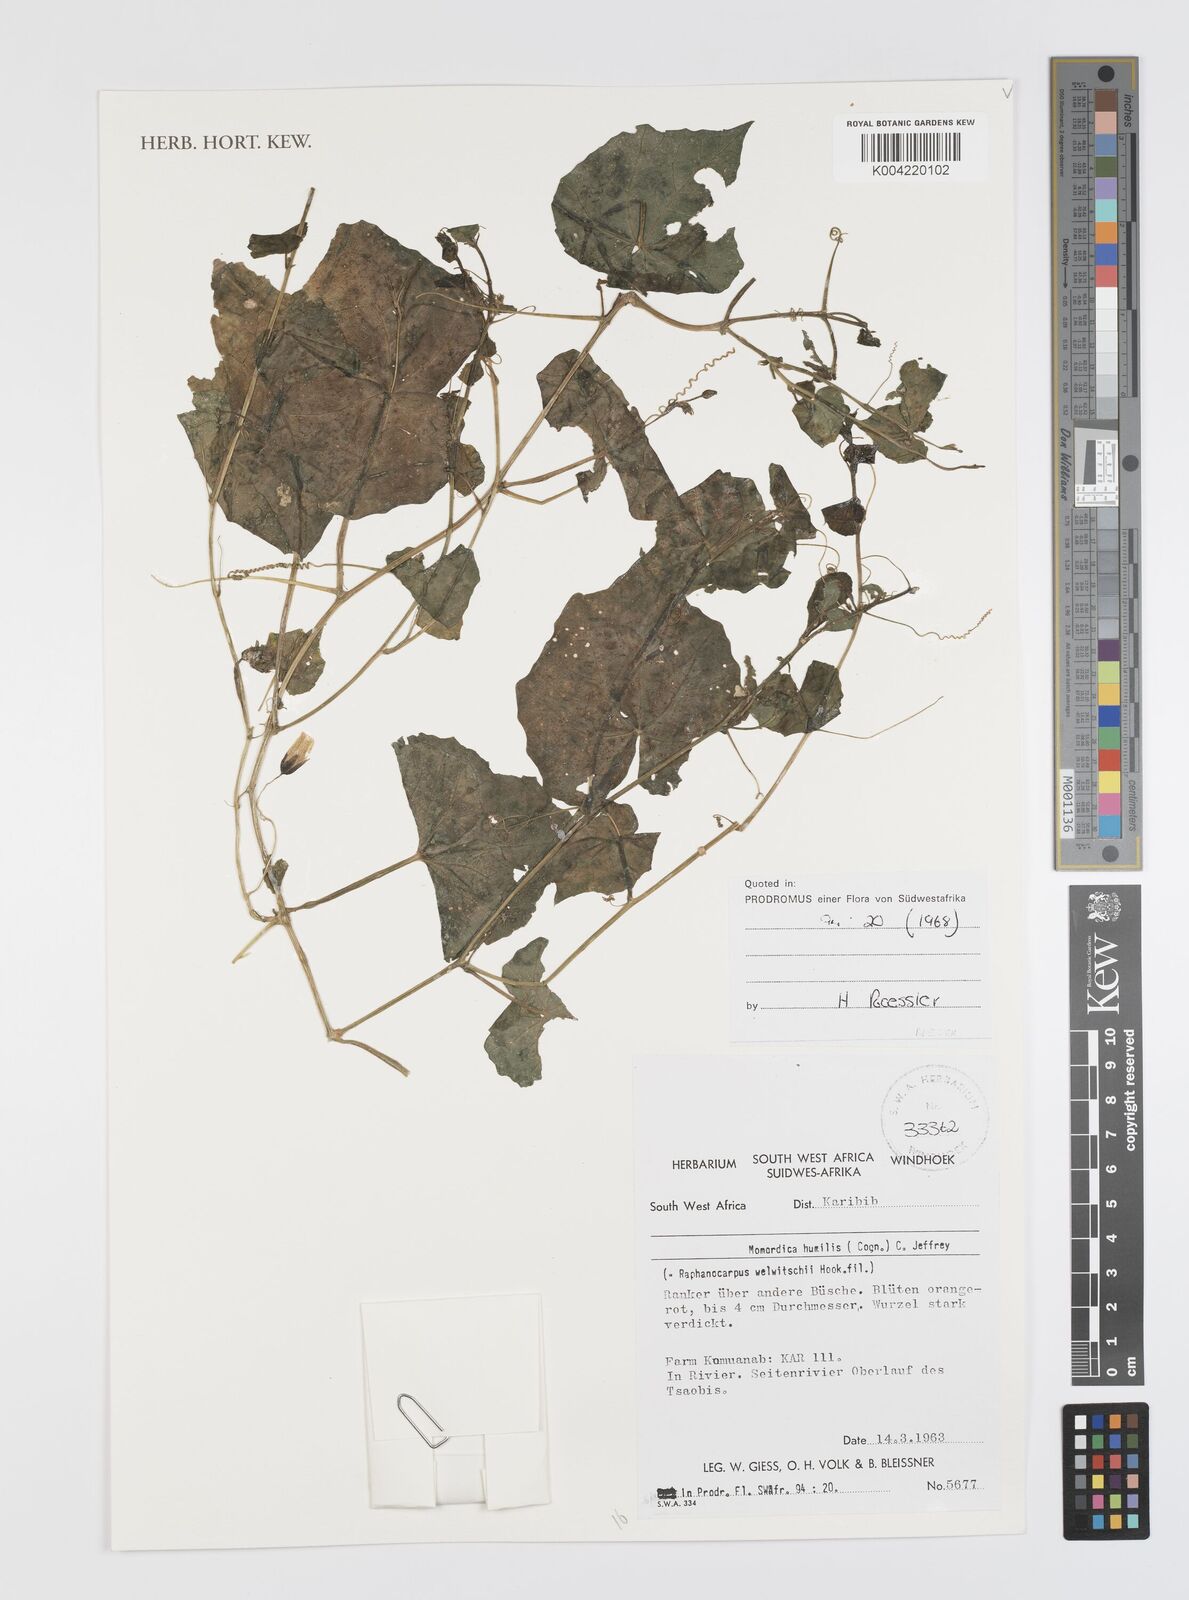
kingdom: Plantae
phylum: Tracheophyta
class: Magnoliopsida
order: Cucurbitales
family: Cucurbitaceae
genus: Momordica
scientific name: Momordica
